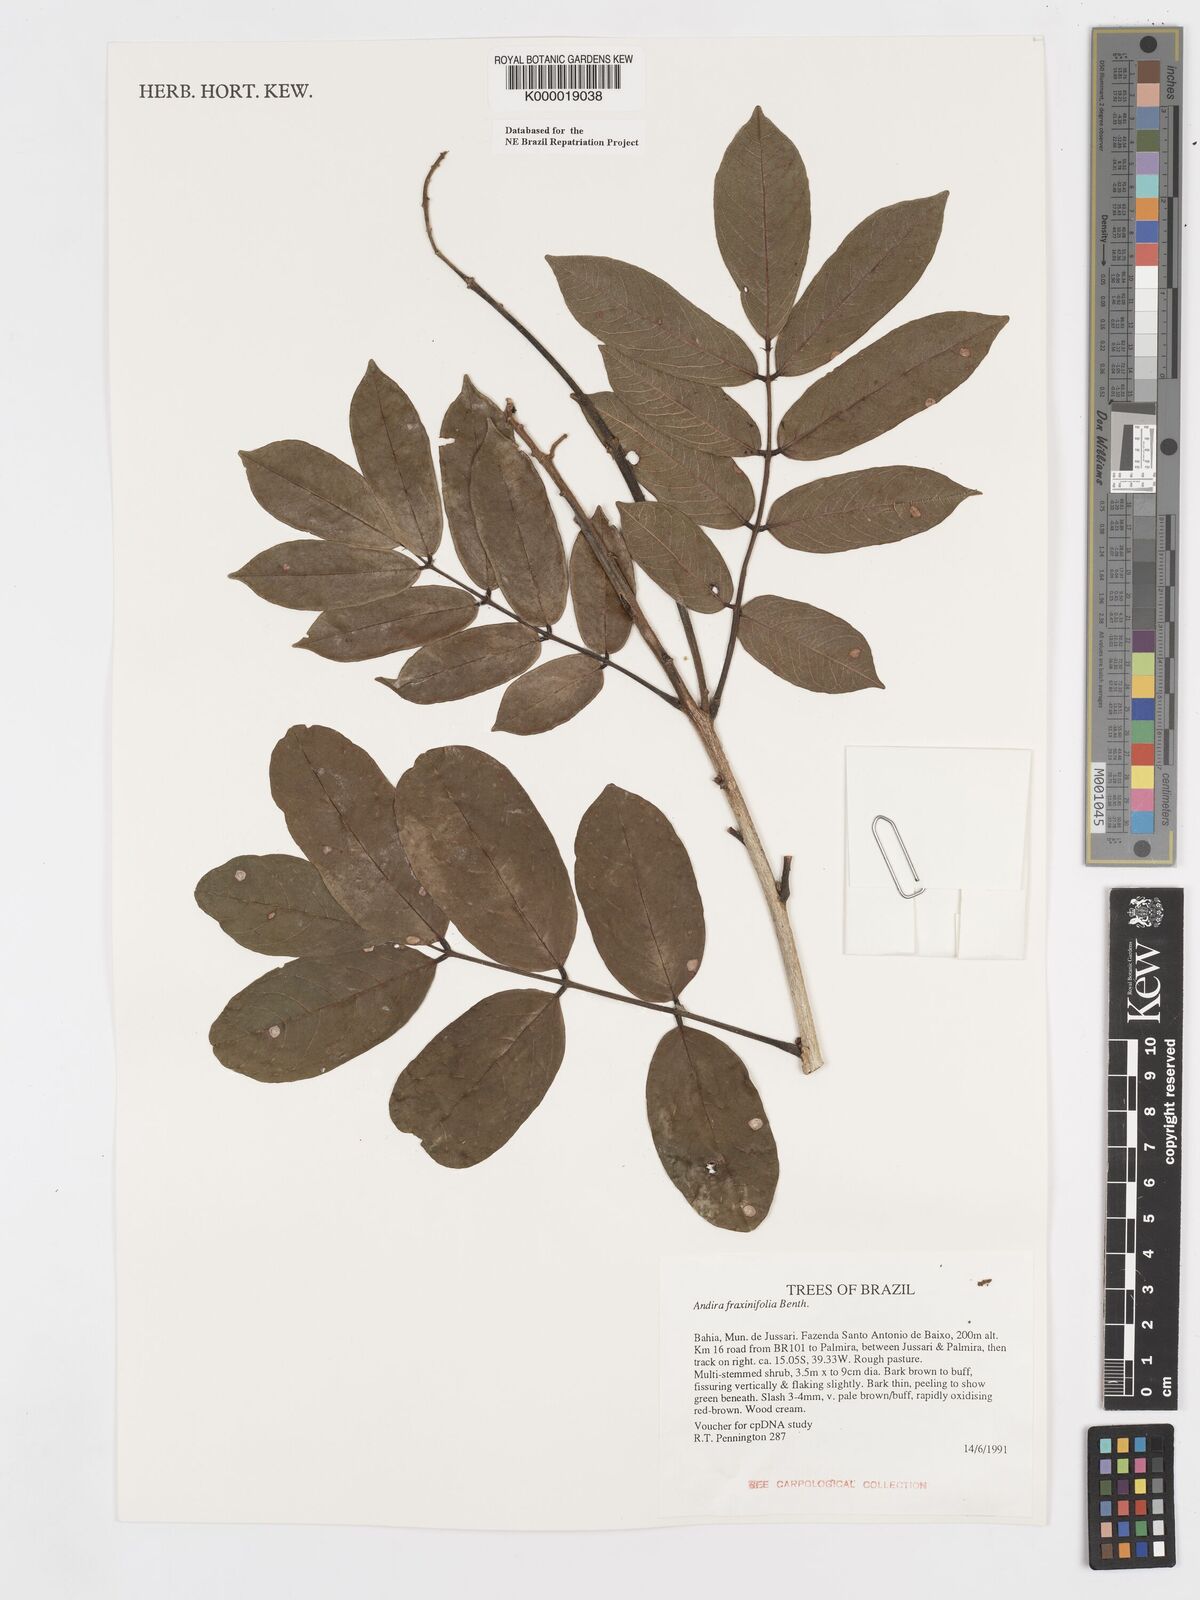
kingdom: Plantae
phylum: Tracheophyta
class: Magnoliopsida
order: Fabales
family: Fabaceae
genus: Andira
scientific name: Andira fraxinifolia
